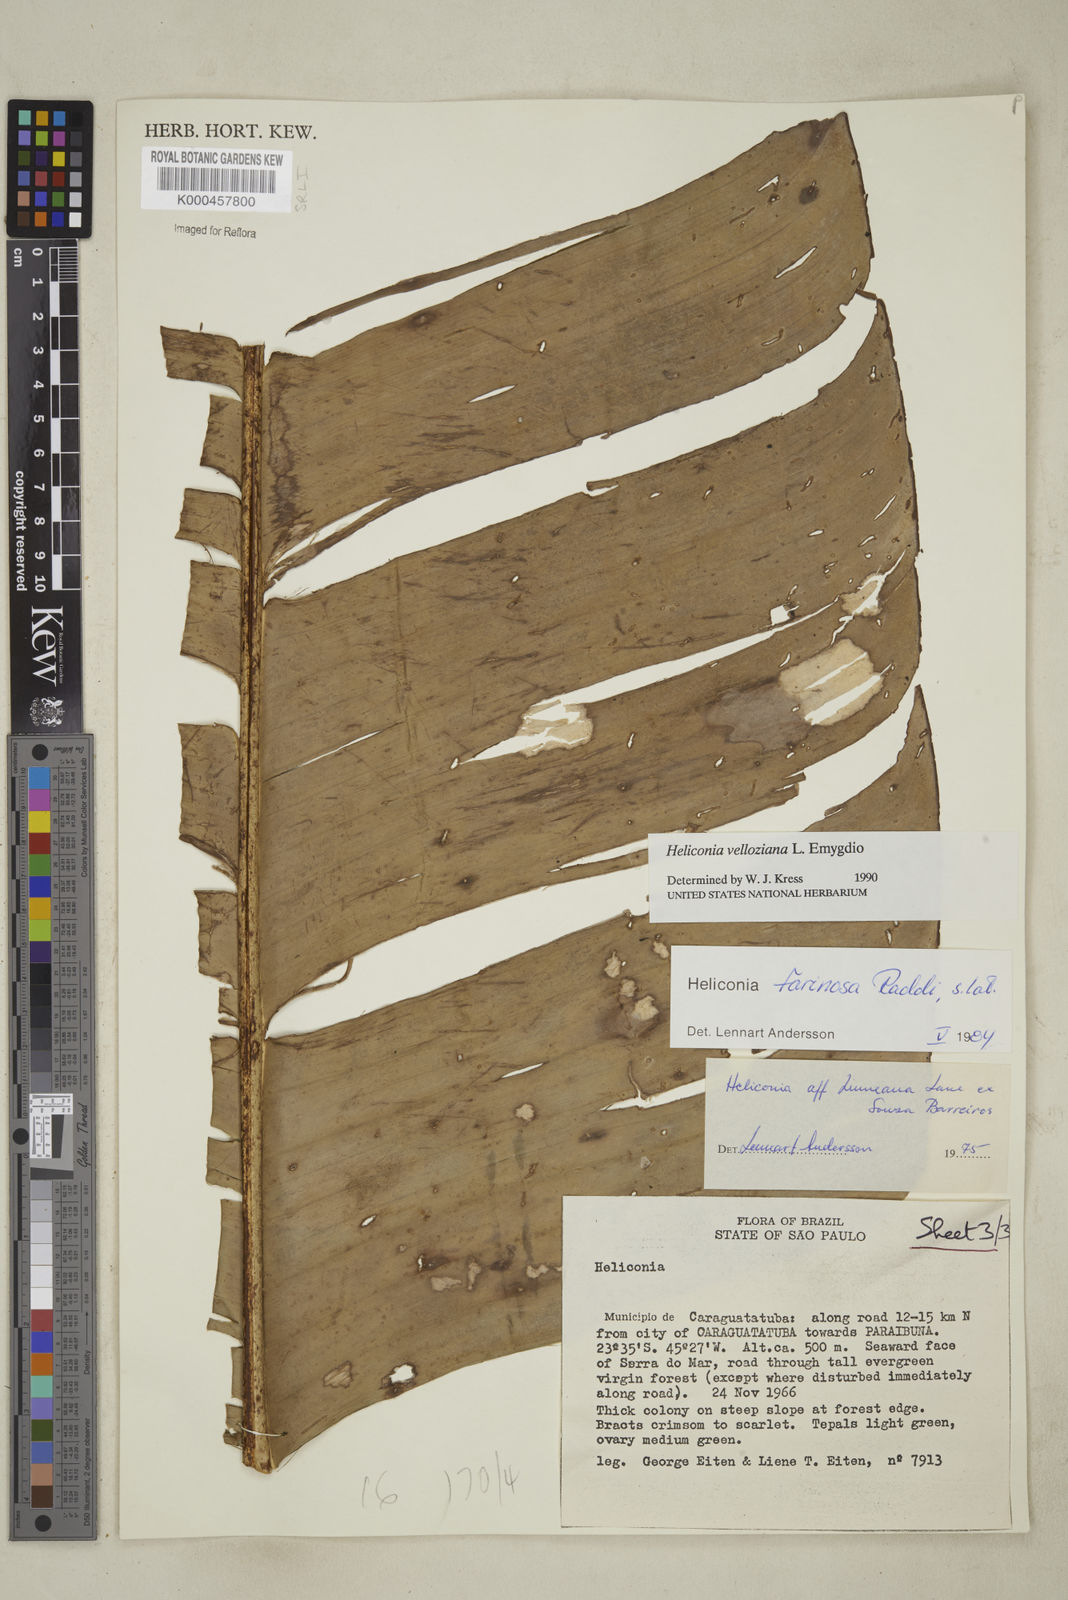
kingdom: Plantae
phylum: Tracheophyta
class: Liliopsida
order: Zingiberales
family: Heliconiaceae
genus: Heliconia
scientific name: Heliconia farinosa
